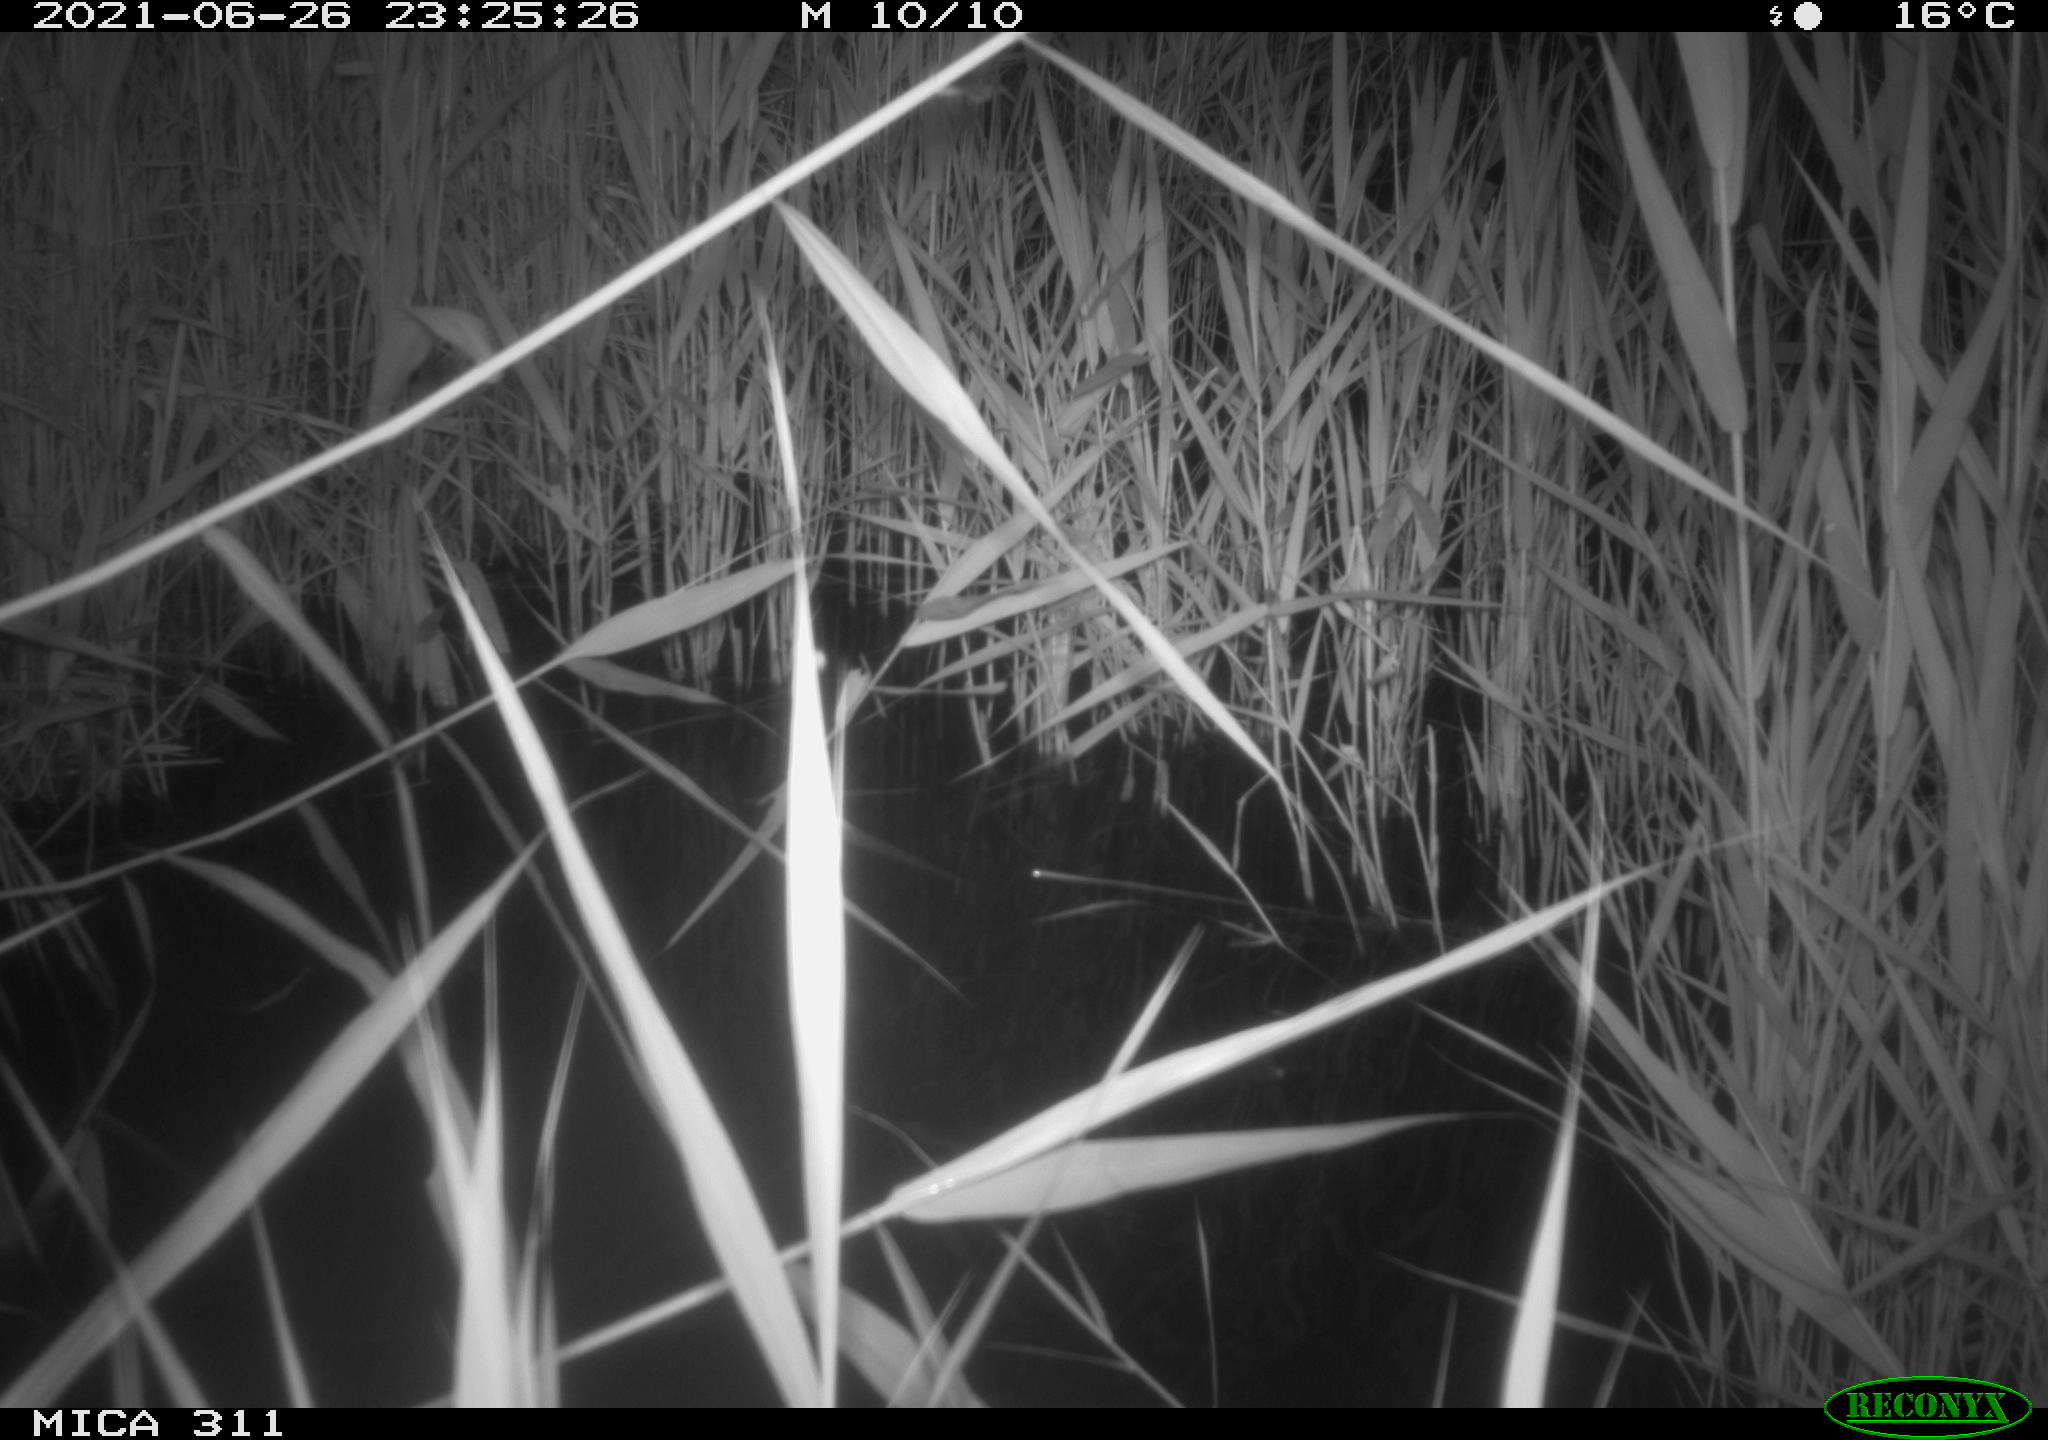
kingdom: Animalia
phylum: Chordata
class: Mammalia
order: Rodentia
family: Muridae
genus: Rattus
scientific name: Rattus norvegicus
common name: Brown rat
